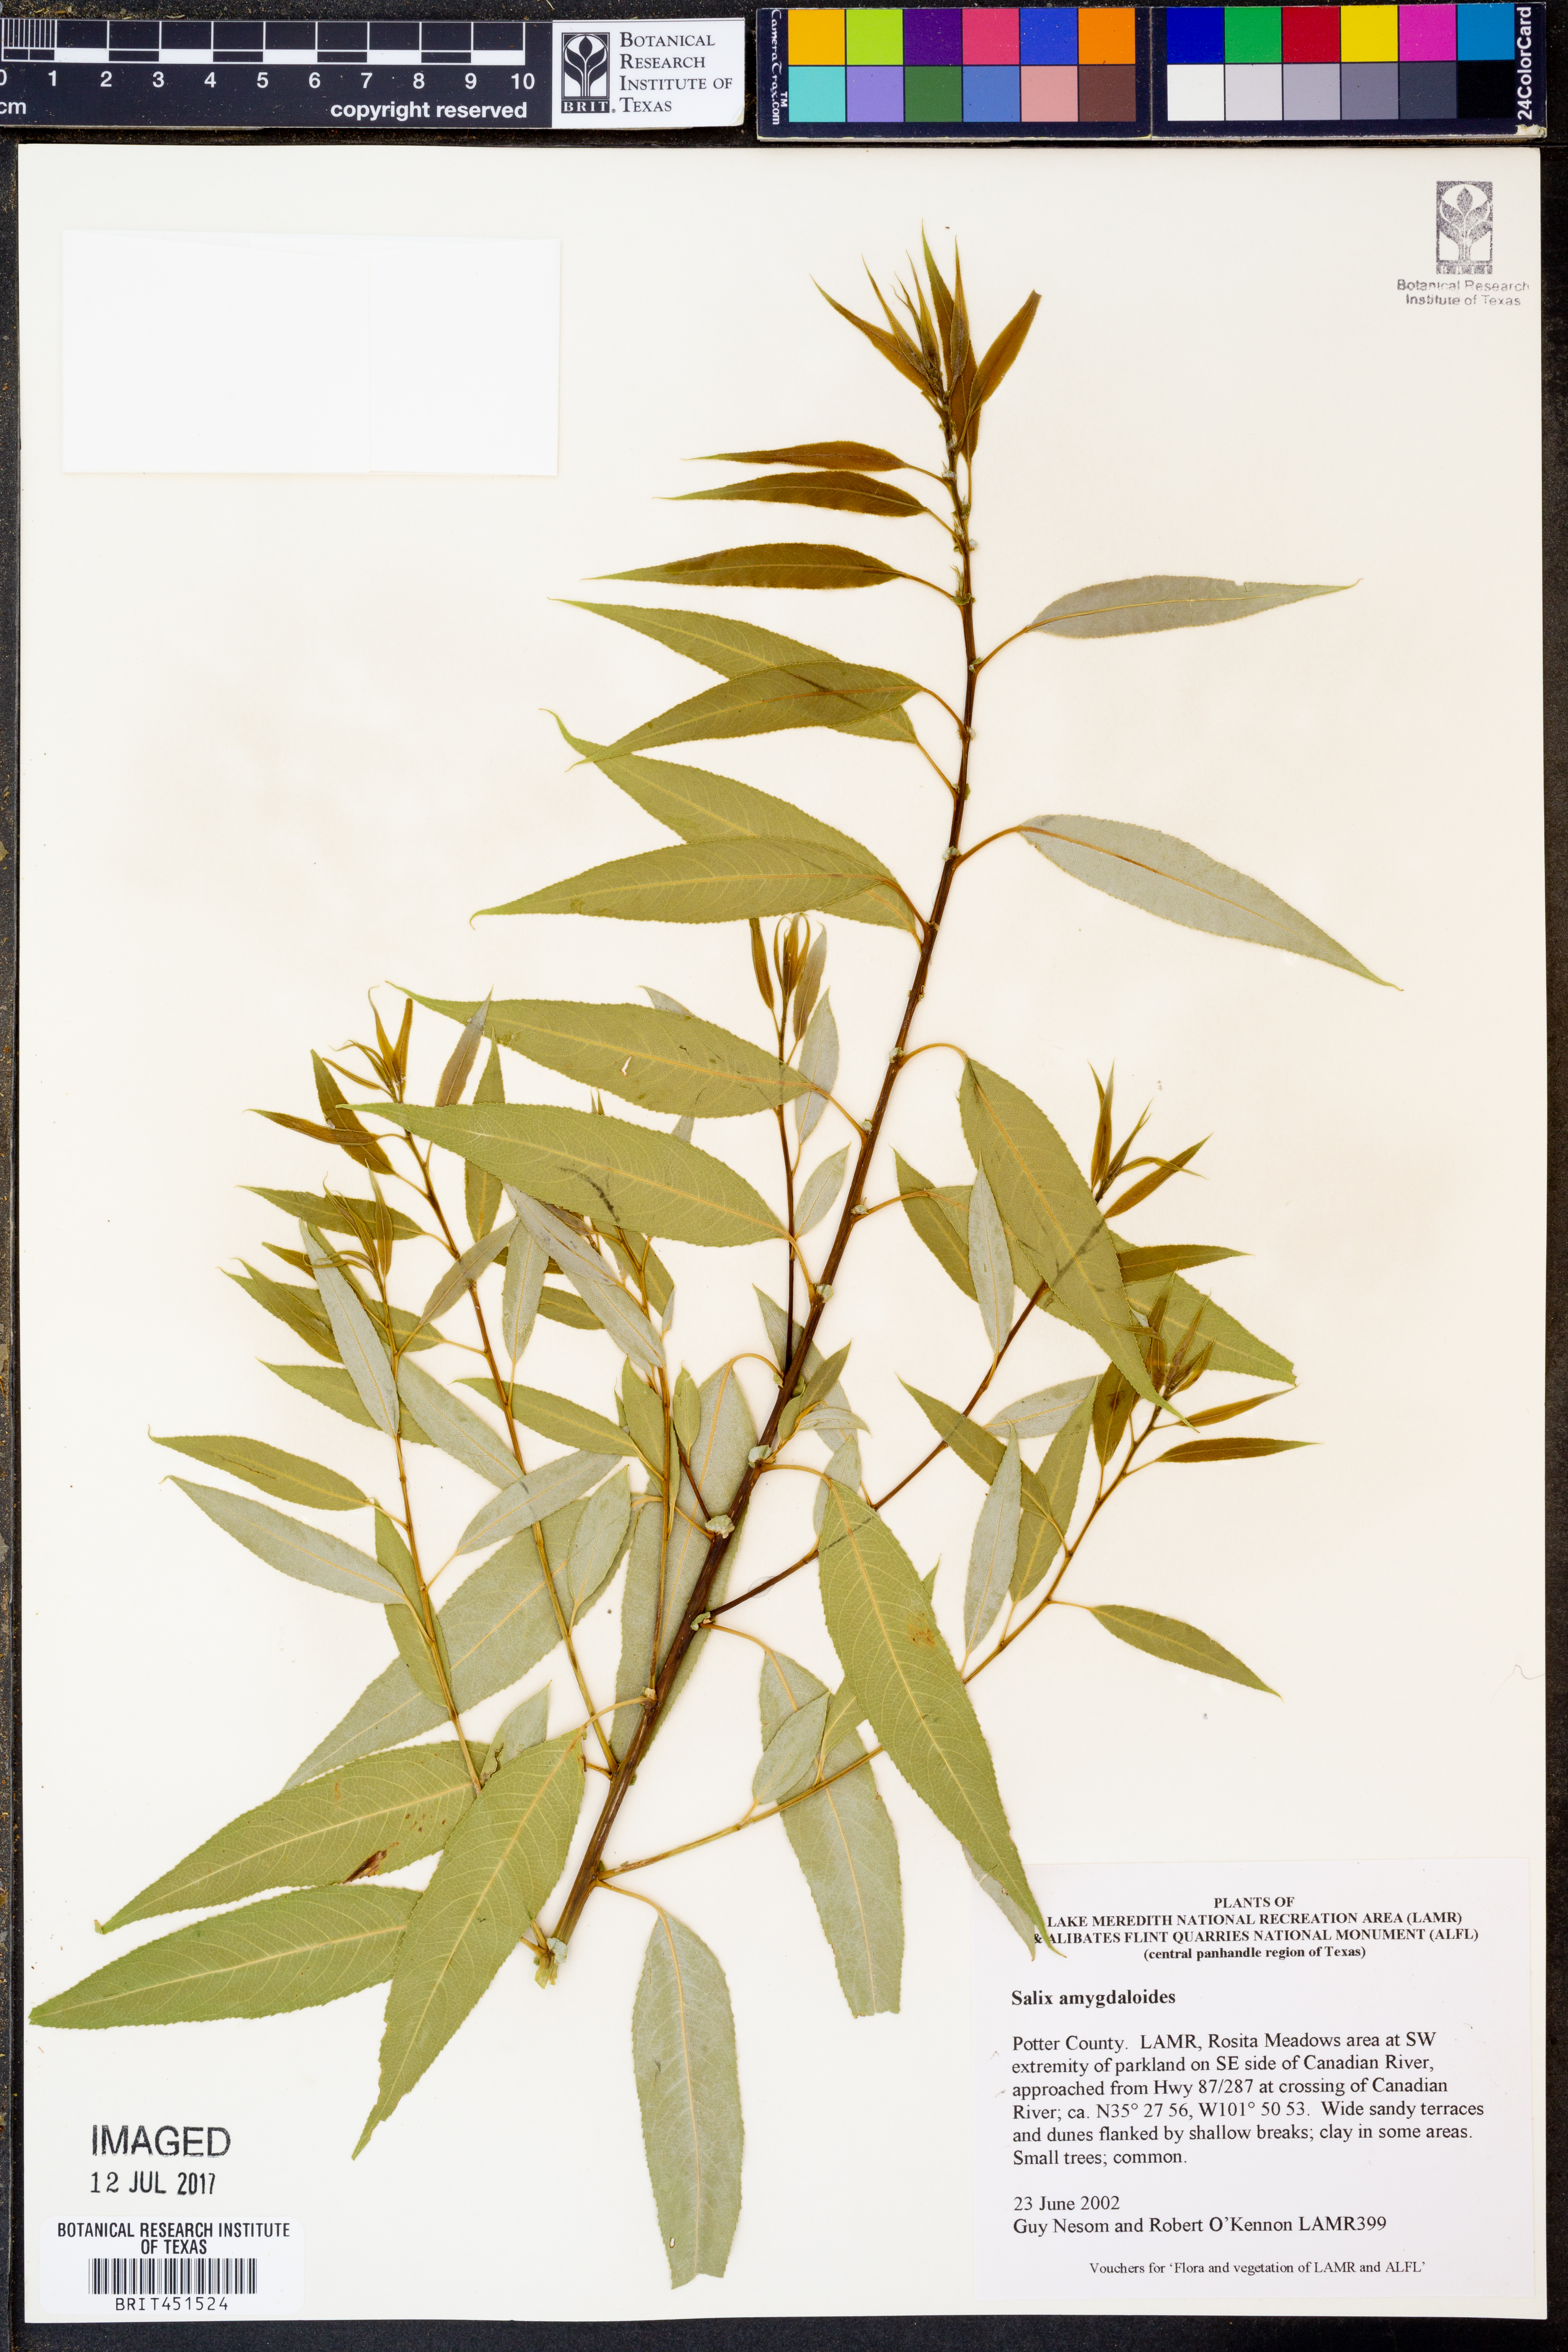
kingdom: Plantae
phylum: Tracheophyta
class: Magnoliopsida
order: Malpighiales
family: Salicaceae
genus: Salix
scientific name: Salix amygdaloides
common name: Peach leaf willow
